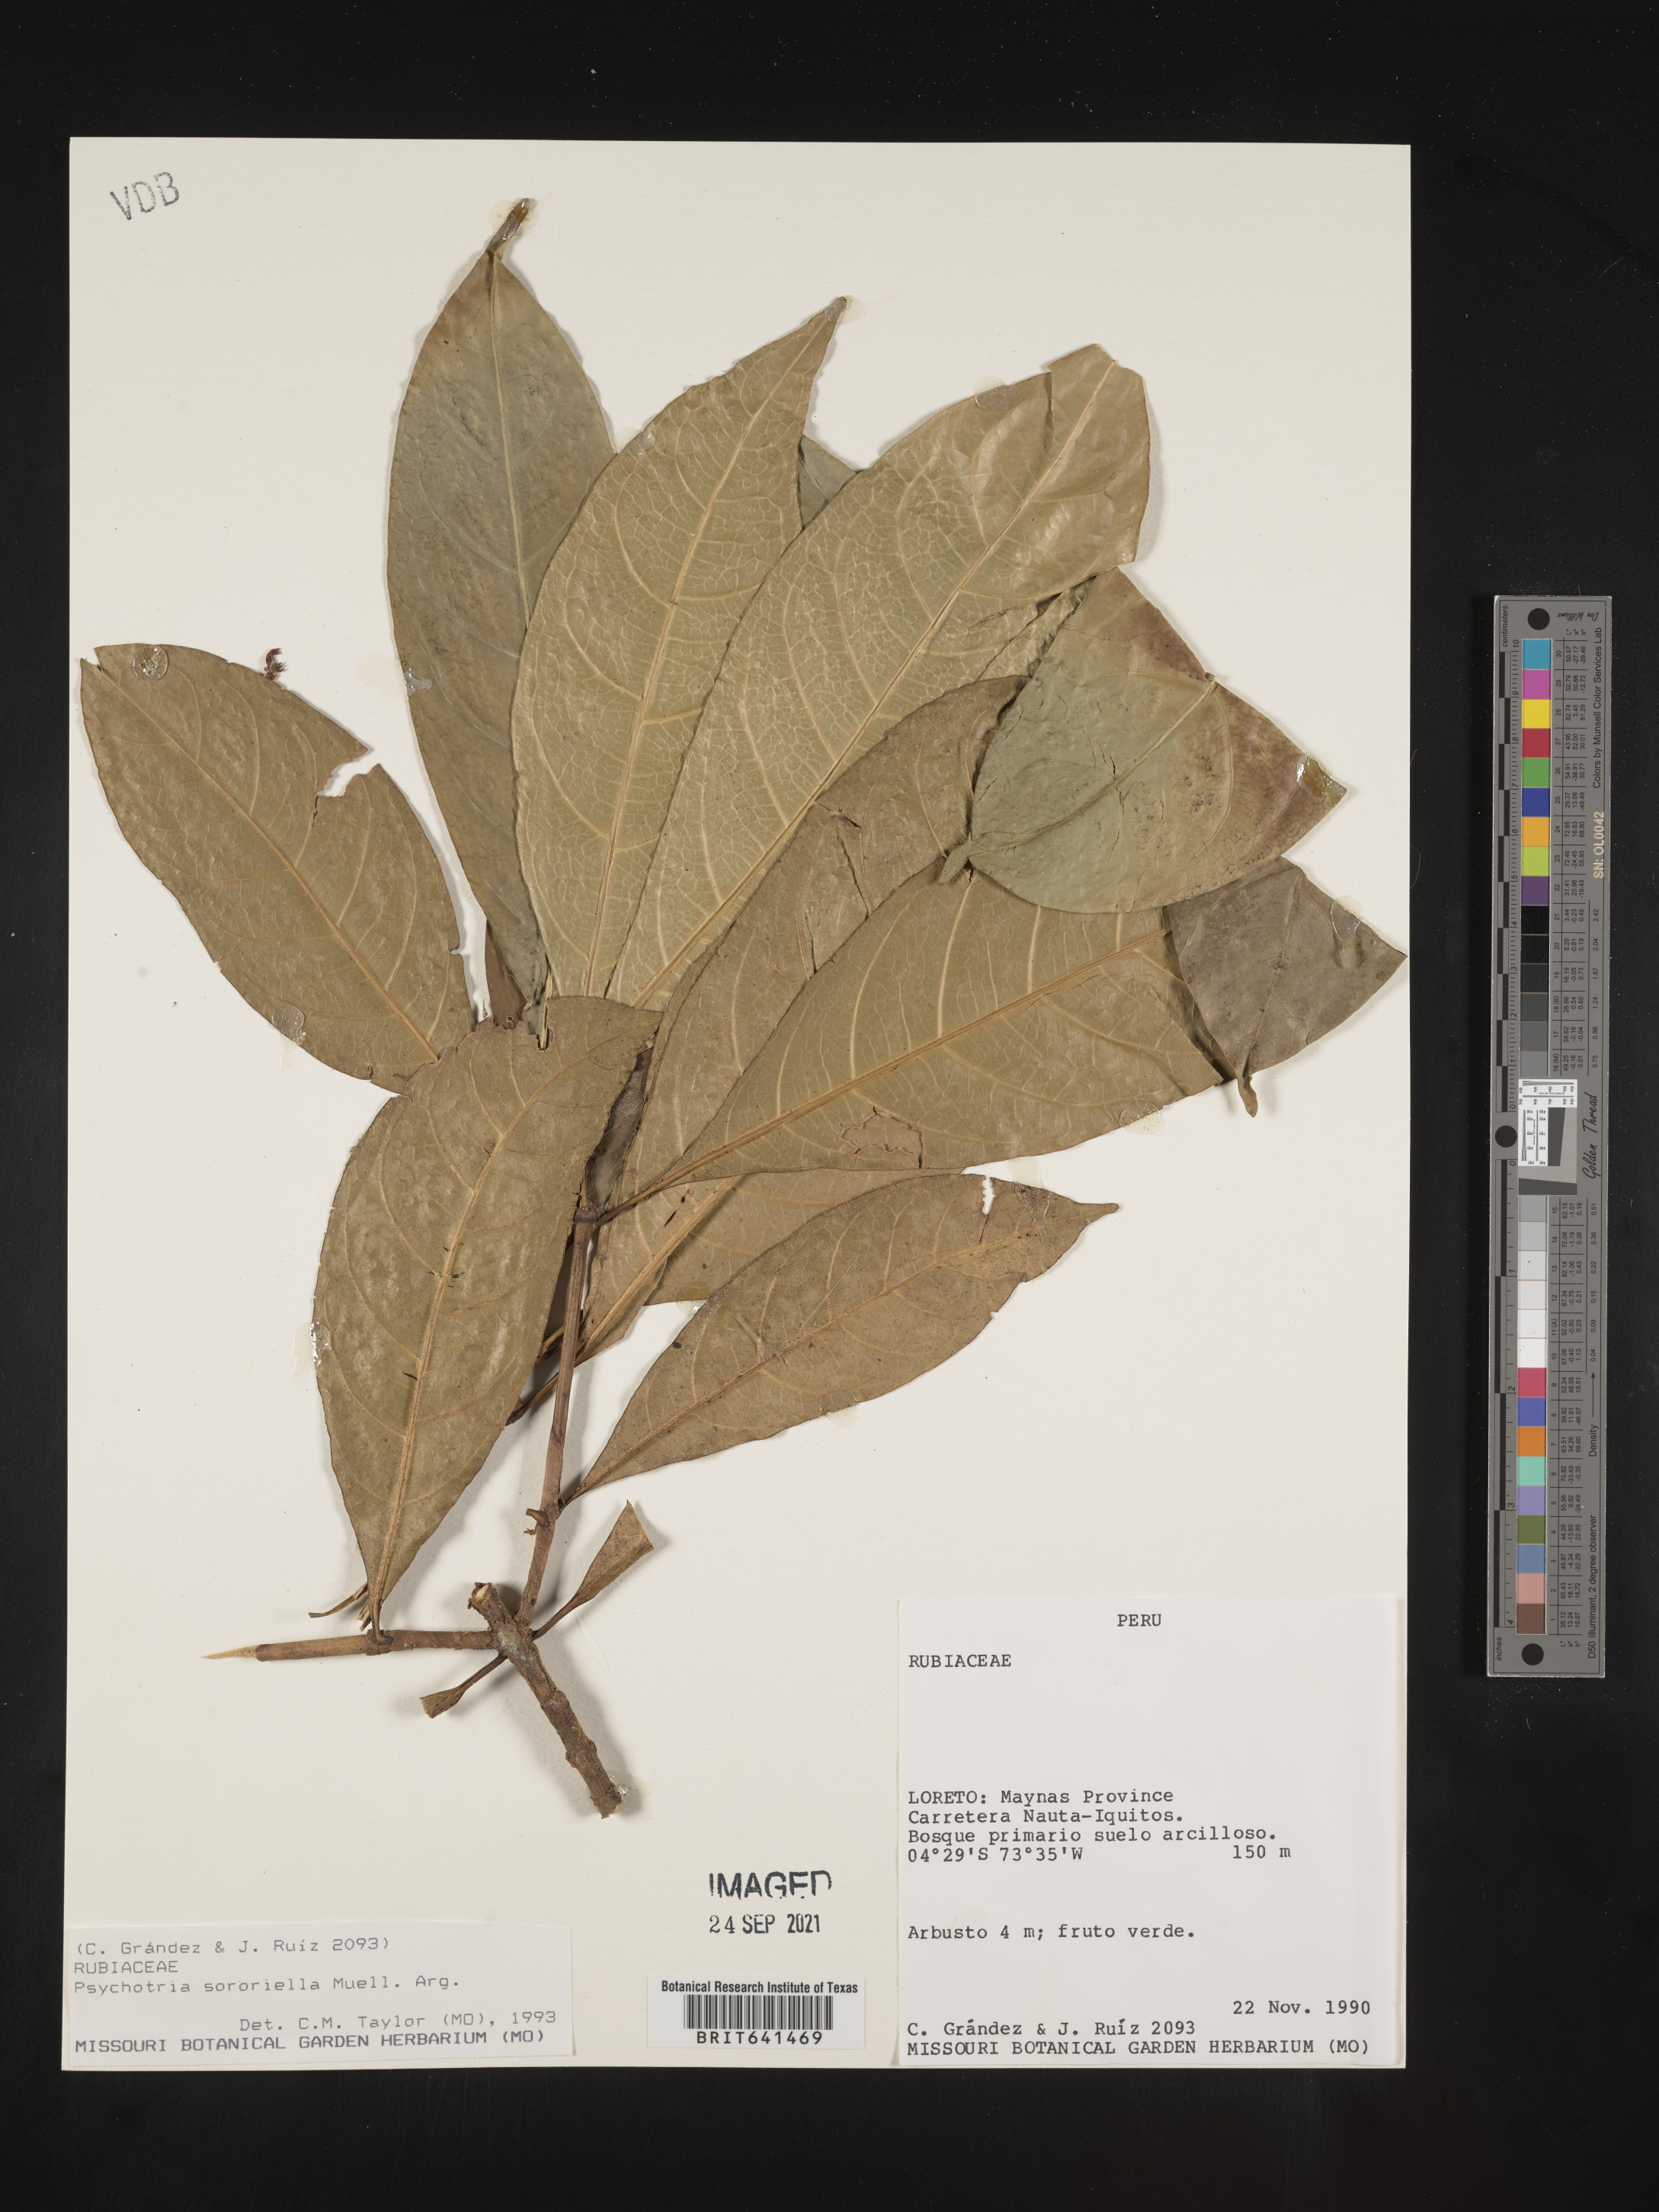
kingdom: Plantae
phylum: Tracheophyta
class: Magnoliopsida
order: Gentianales
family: Rubiaceae
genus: Psychotria
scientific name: Psychotria
